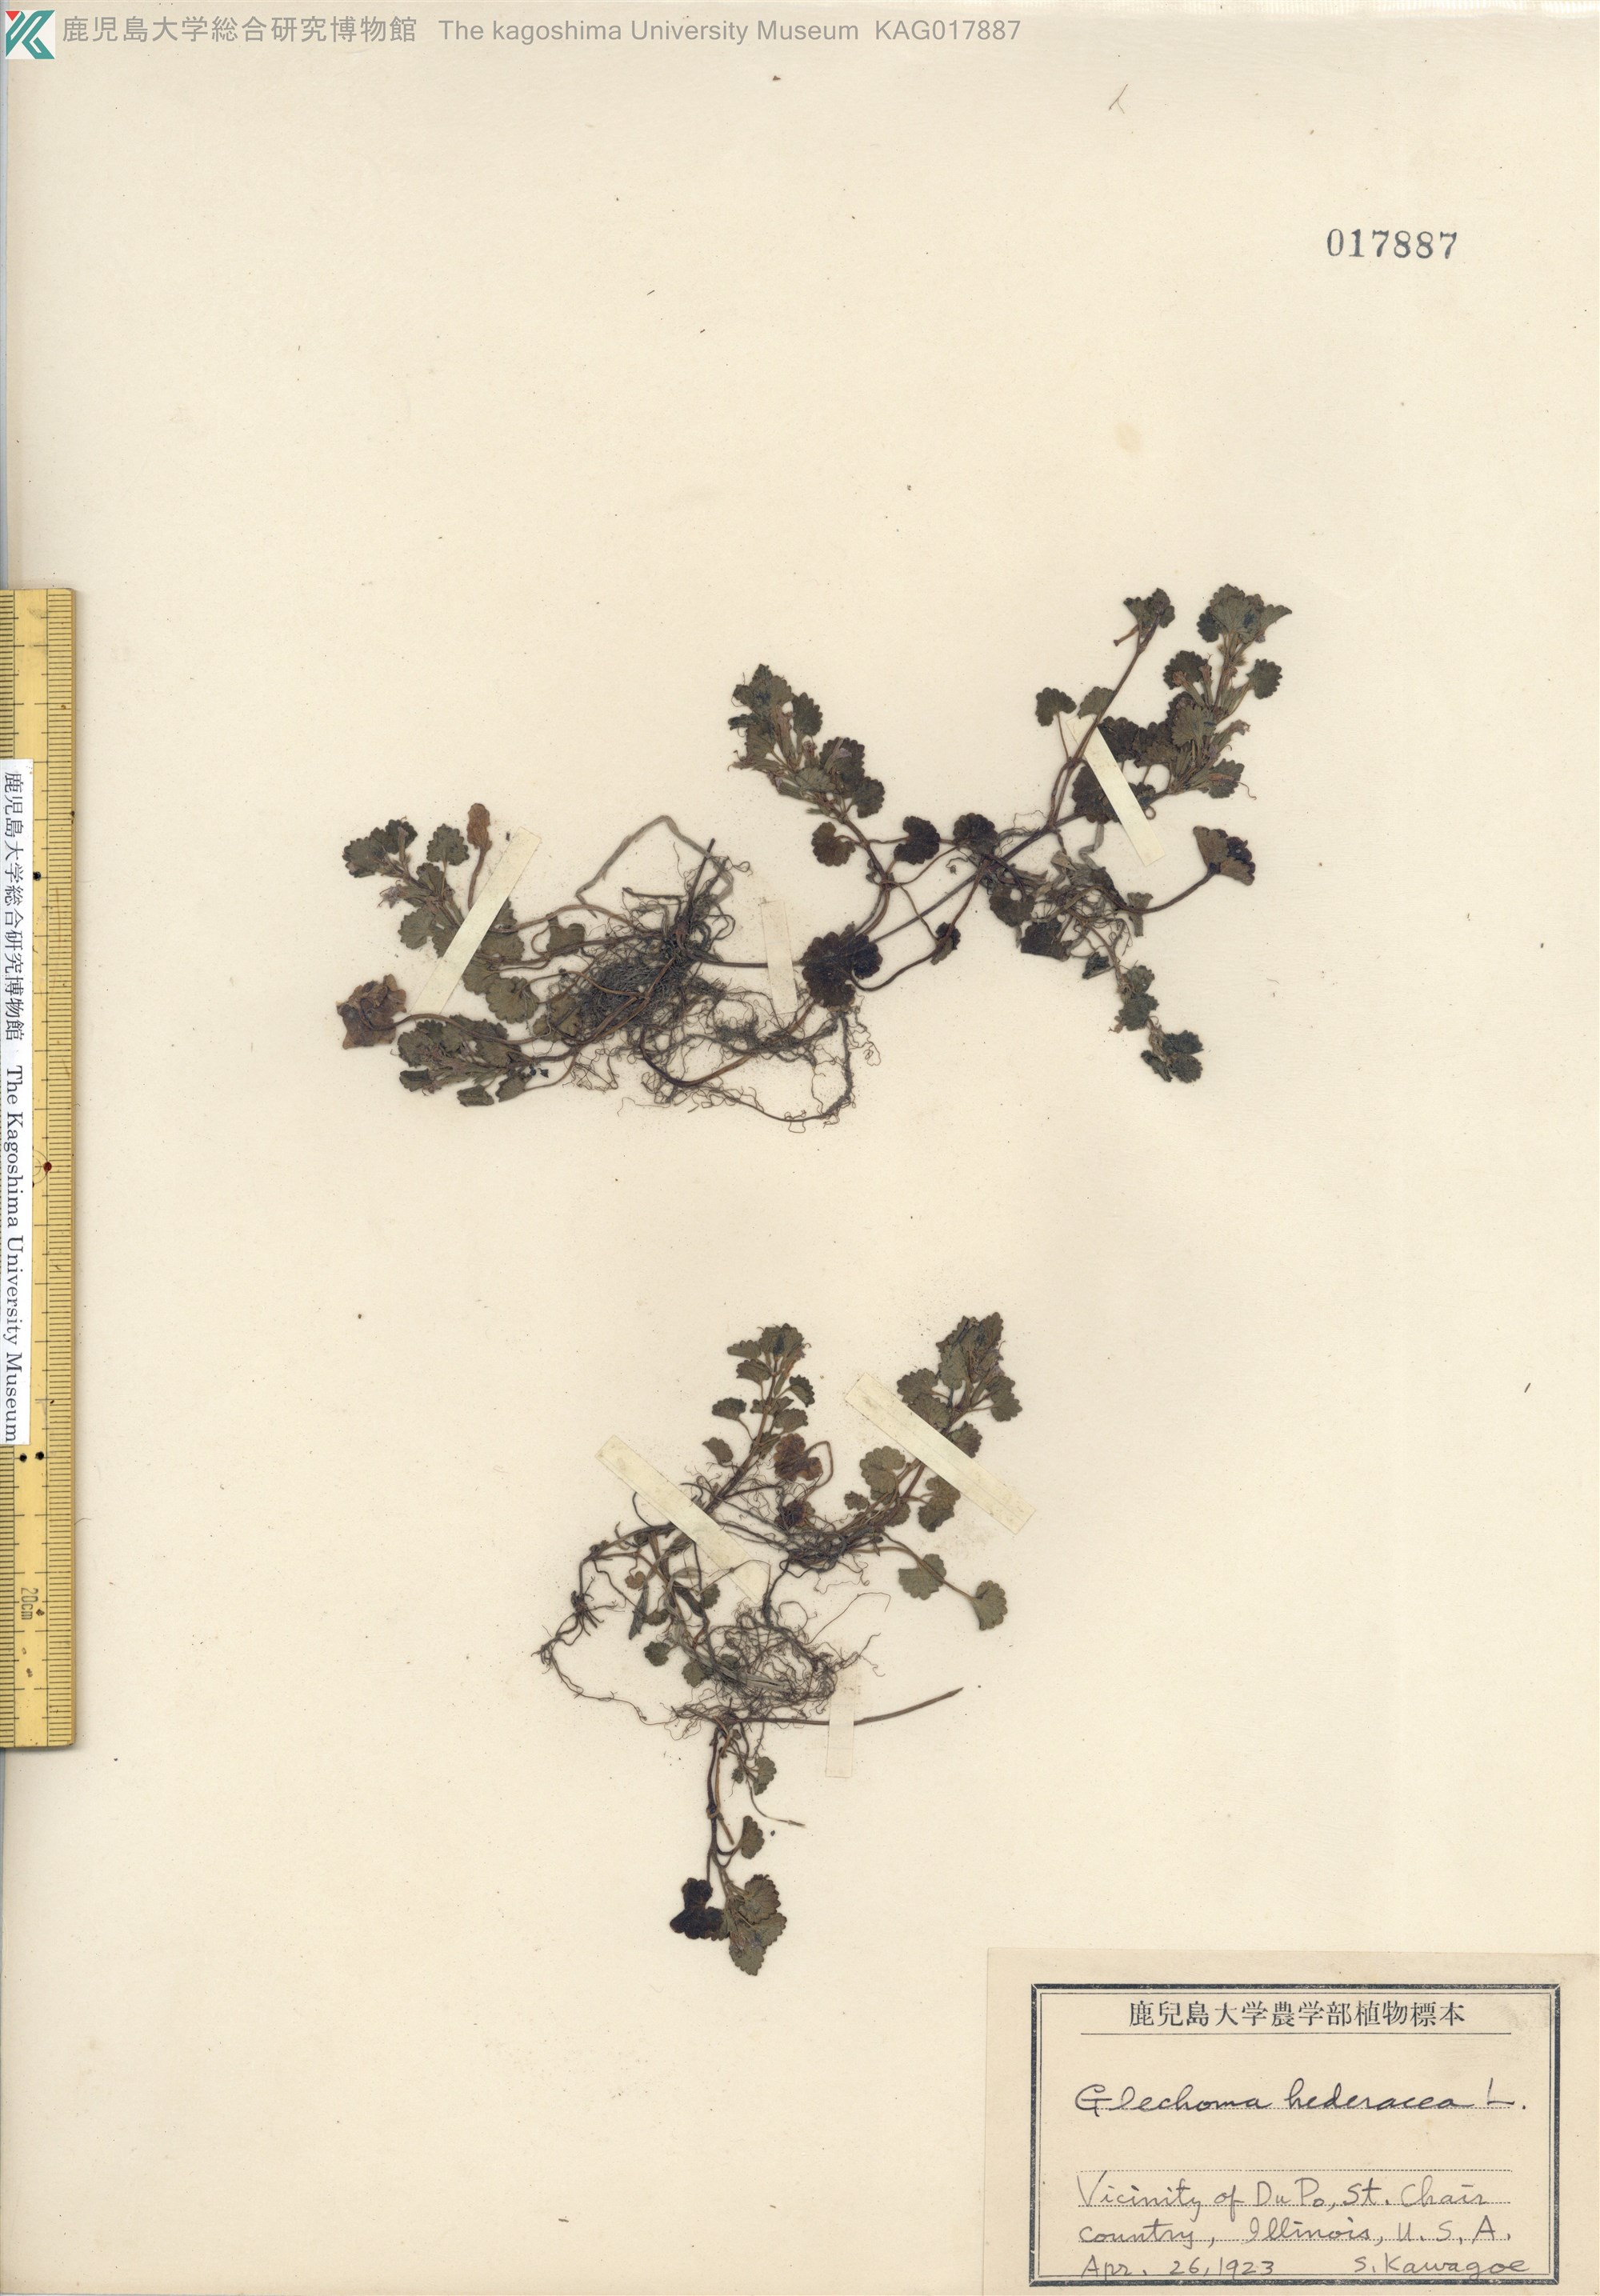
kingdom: Plantae
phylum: Tracheophyta
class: Magnoliopsida
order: Lamiales
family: Lamiaceae
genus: Glechoma
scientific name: Glechoma hederacea
